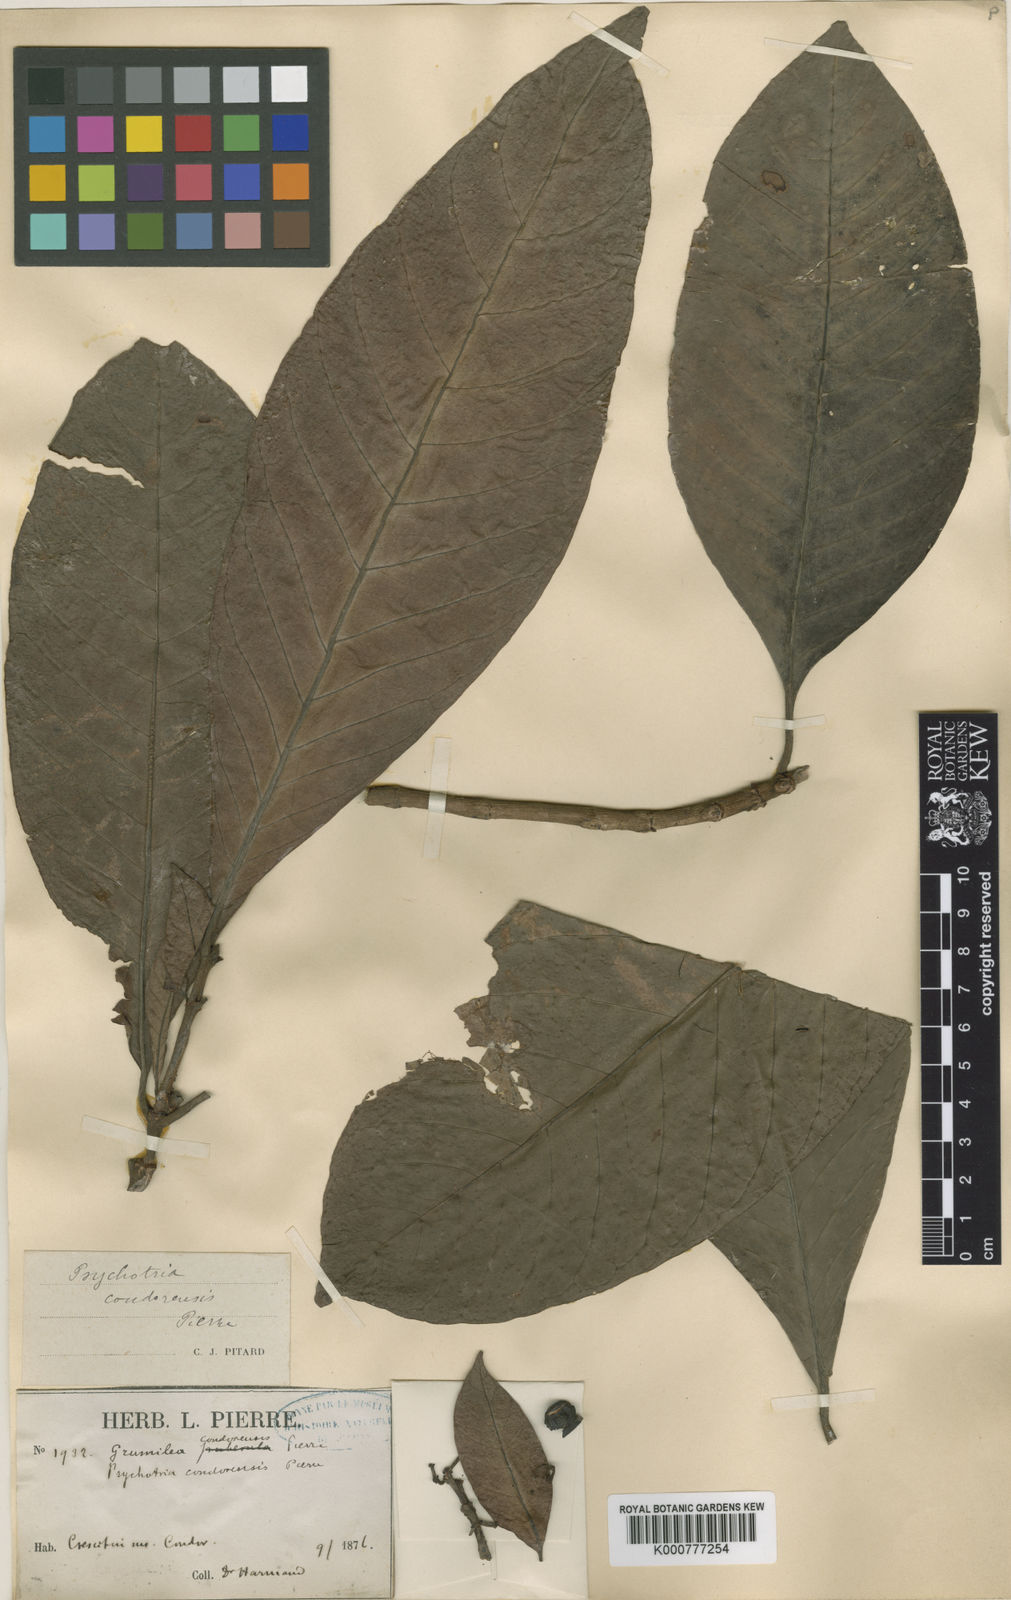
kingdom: Plantae
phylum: Tracheophyta
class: Magnoliopsida
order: Gentianales
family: Rubiaceae
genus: Psychotria
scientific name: Psychotria condorensis
